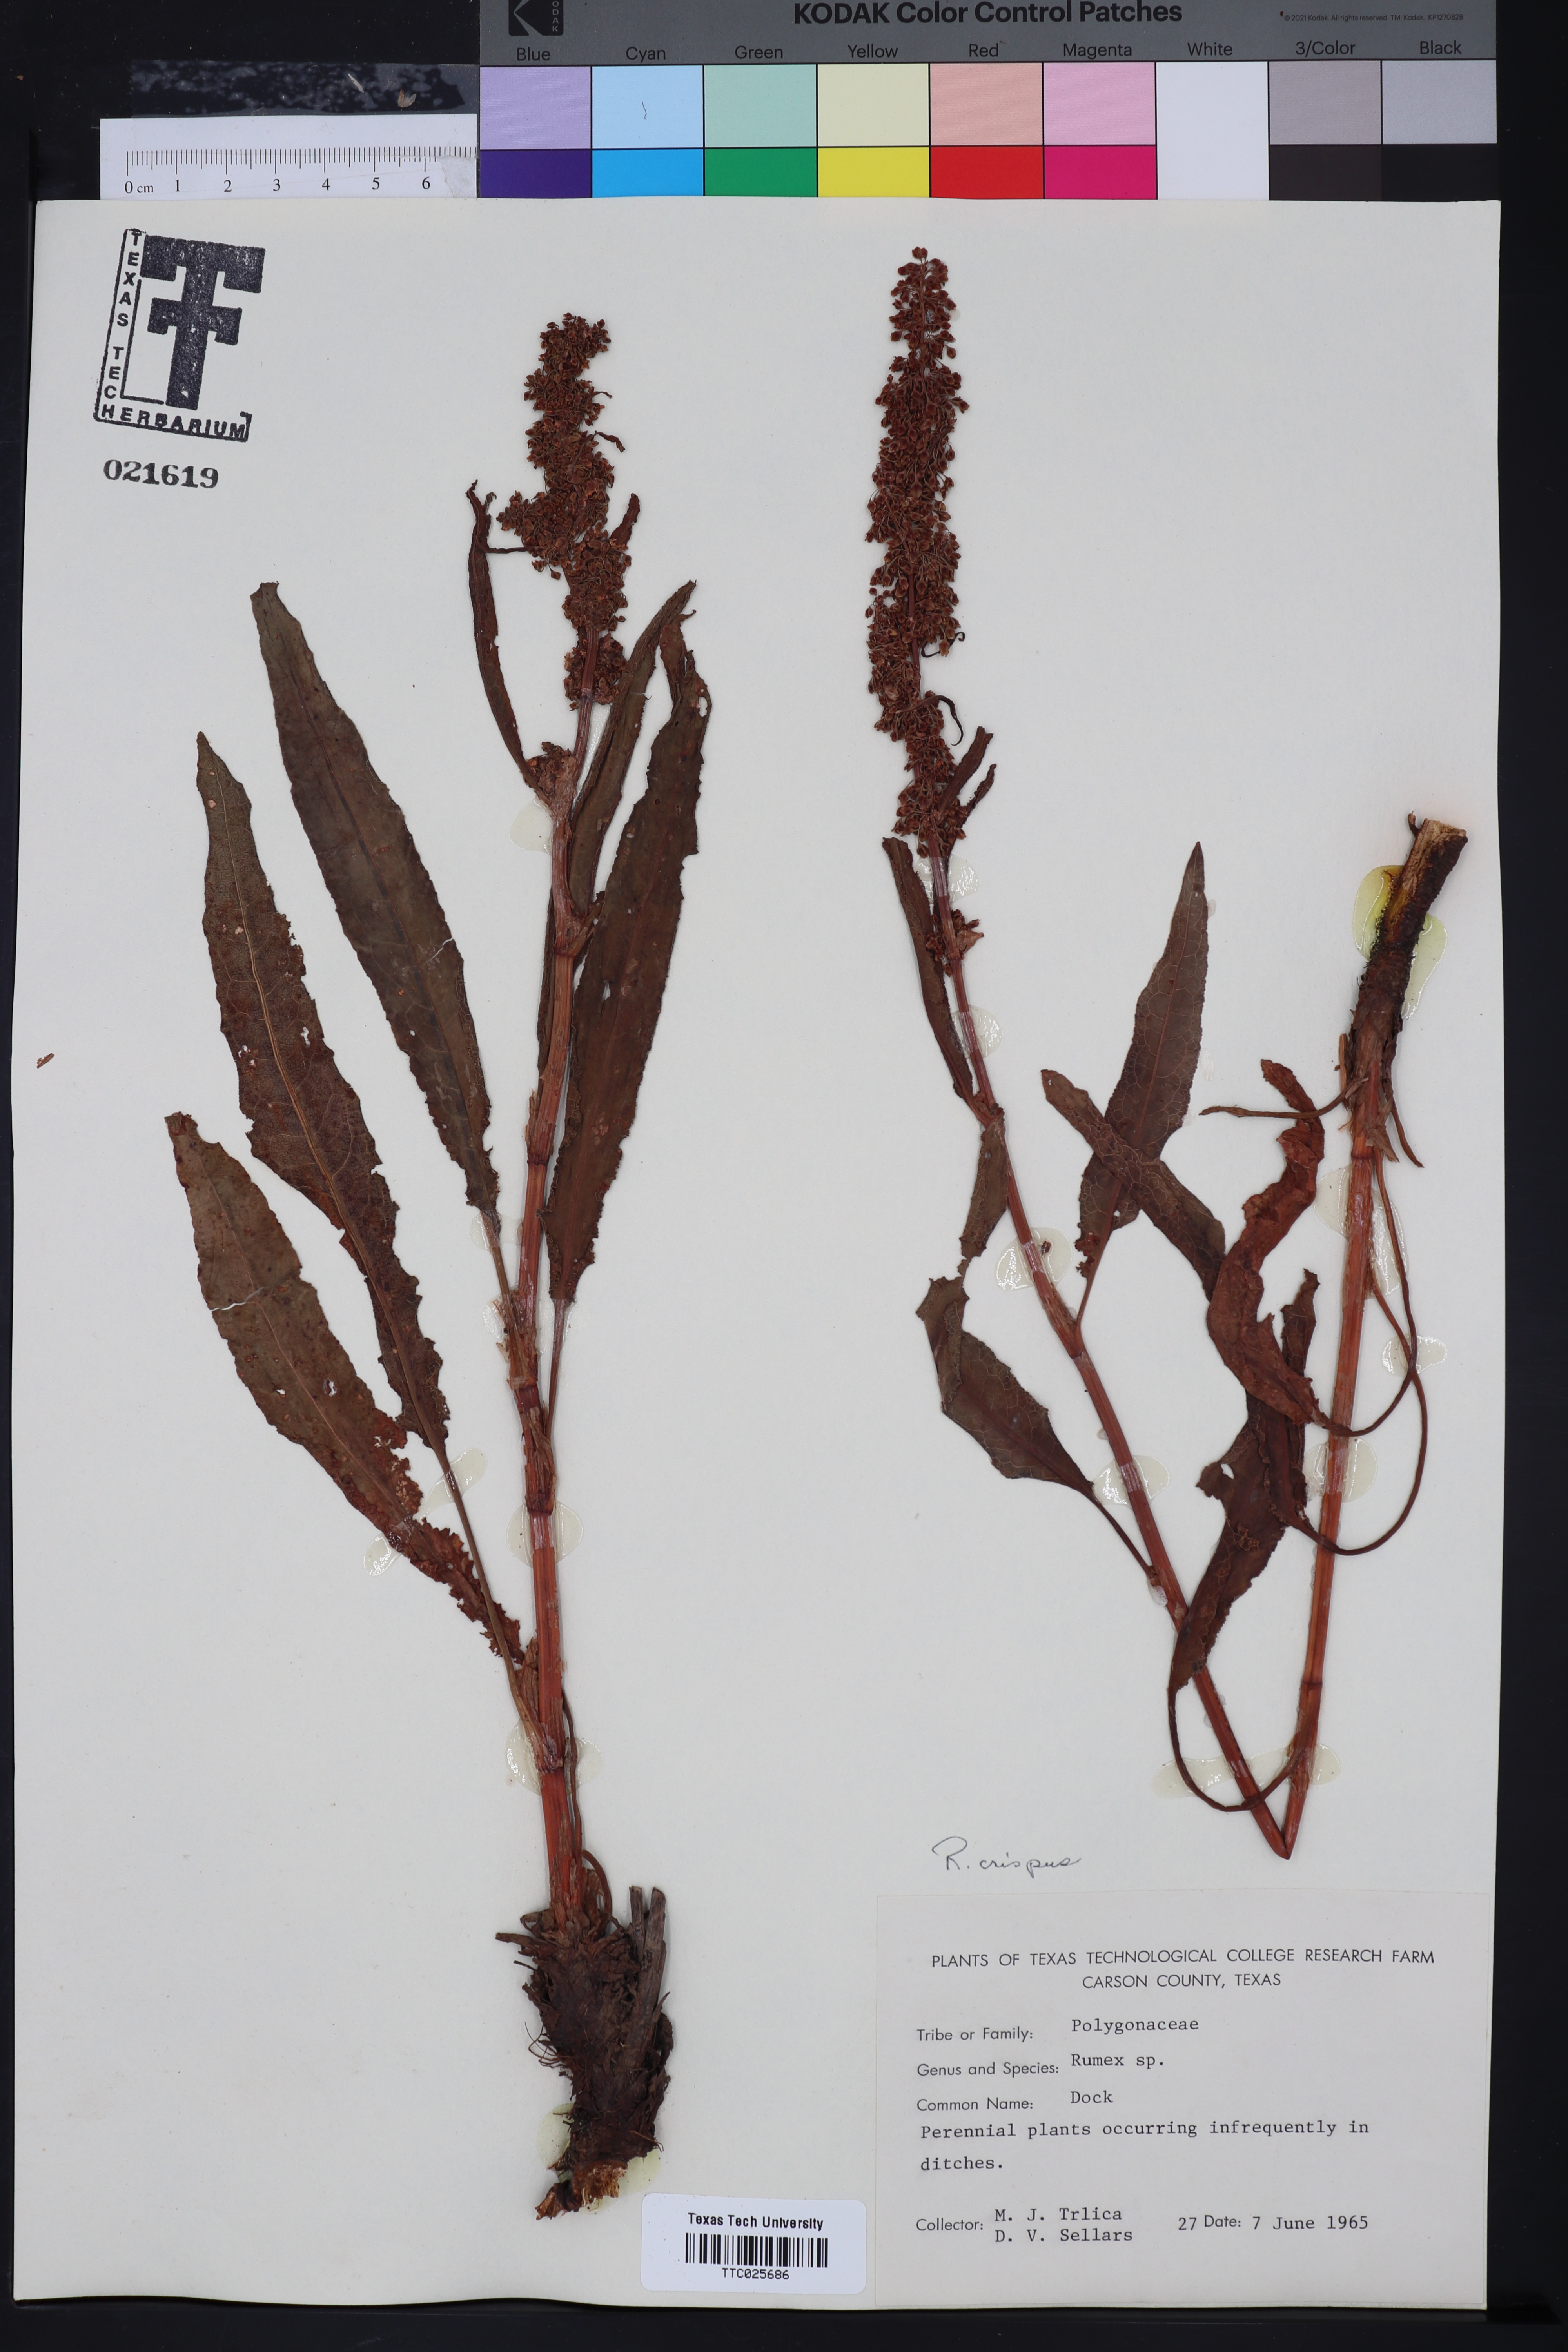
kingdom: Plantae
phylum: Tracheophyta
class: Magnoliopsida
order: Caryophyllales
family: Polygonaceae
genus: Rumex
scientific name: Rumex
